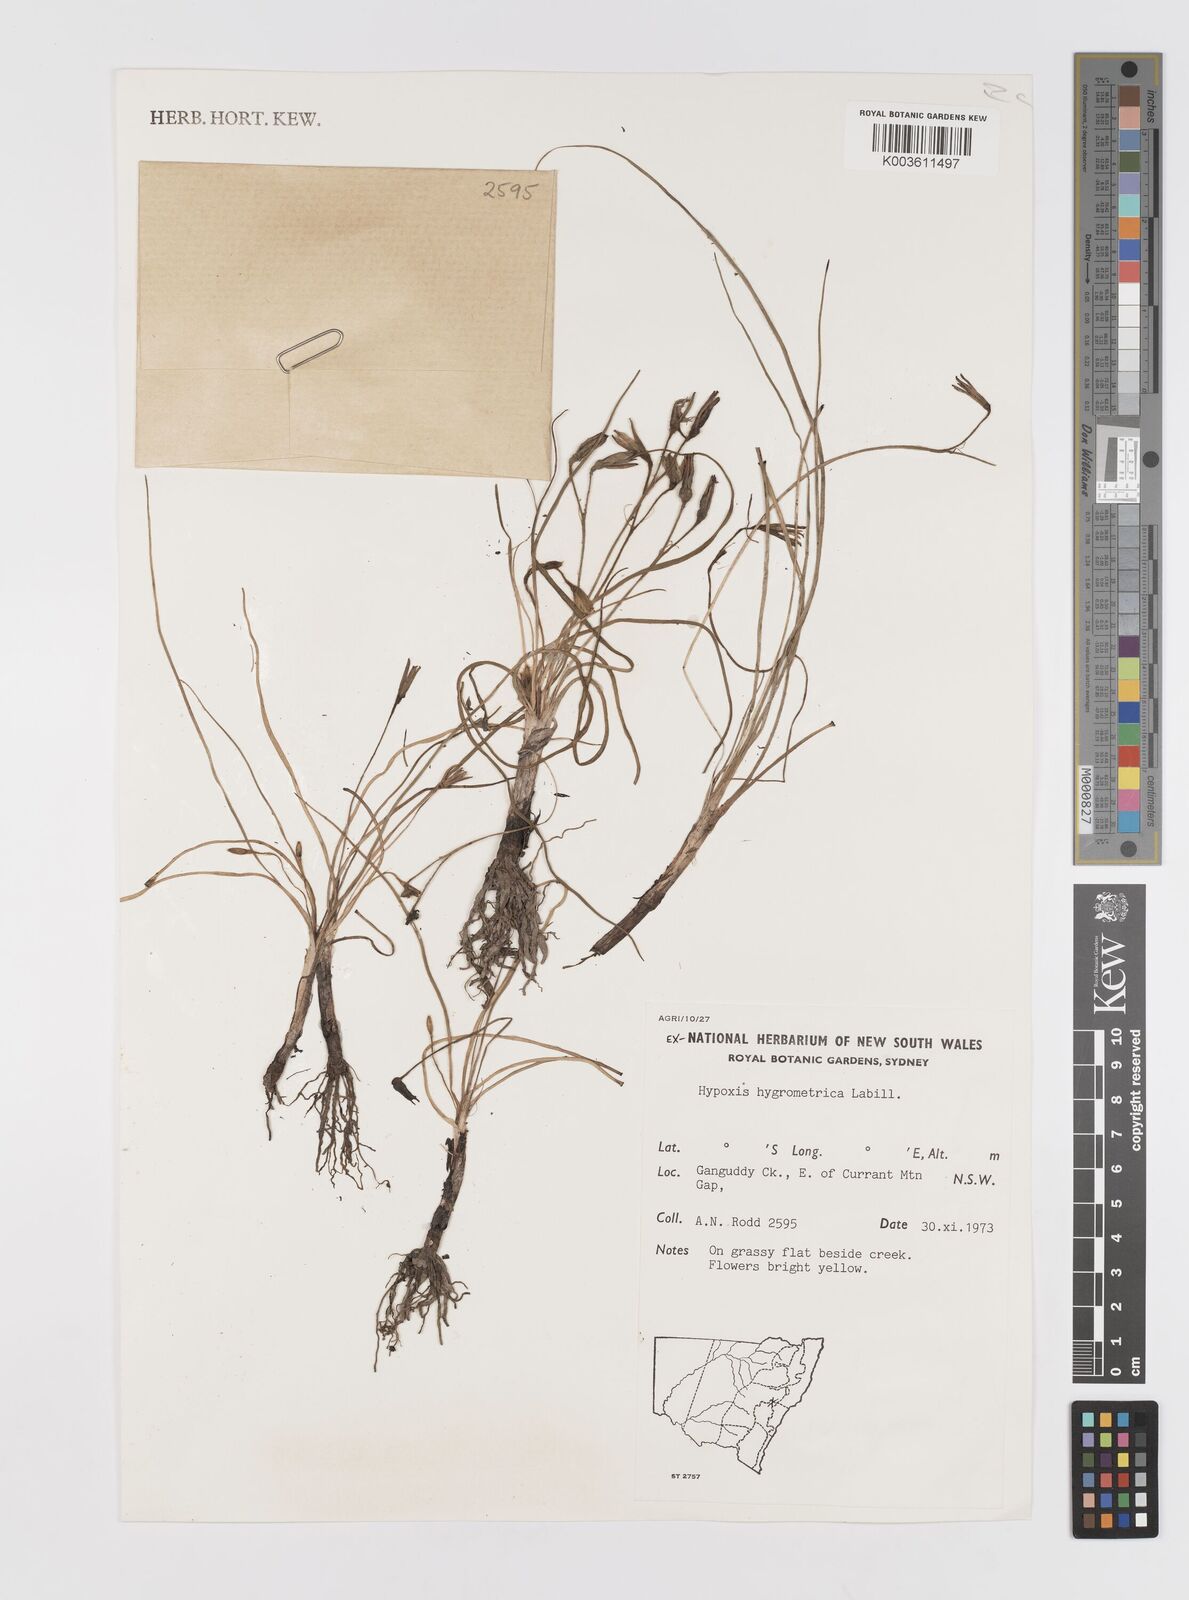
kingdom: Plantae
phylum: Tracheophyta
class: Liliopsida
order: Asparagales
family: Hypoxidaceae
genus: Hypoxis
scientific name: Hypoxis hygrometrica
